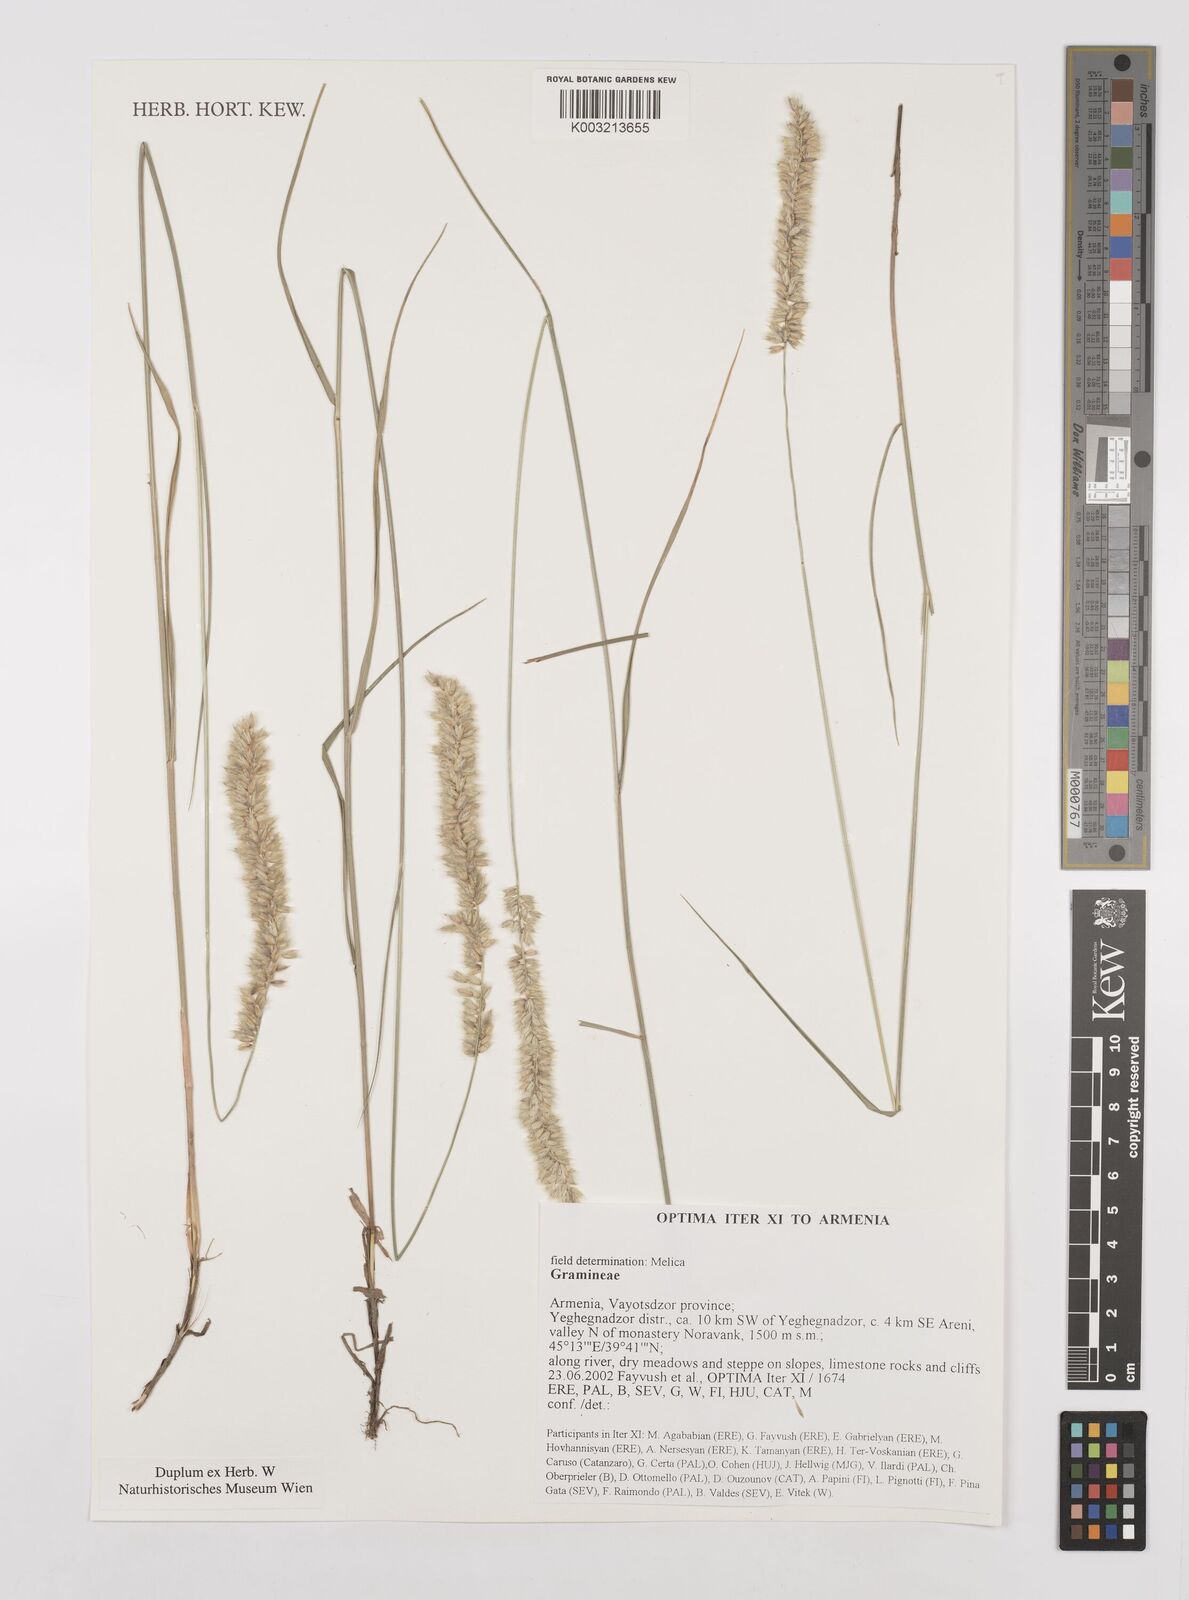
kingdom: Plantae
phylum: Tracheophyta
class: Liliopsida
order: Poales
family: Poaceae
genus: Melica
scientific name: Melica
